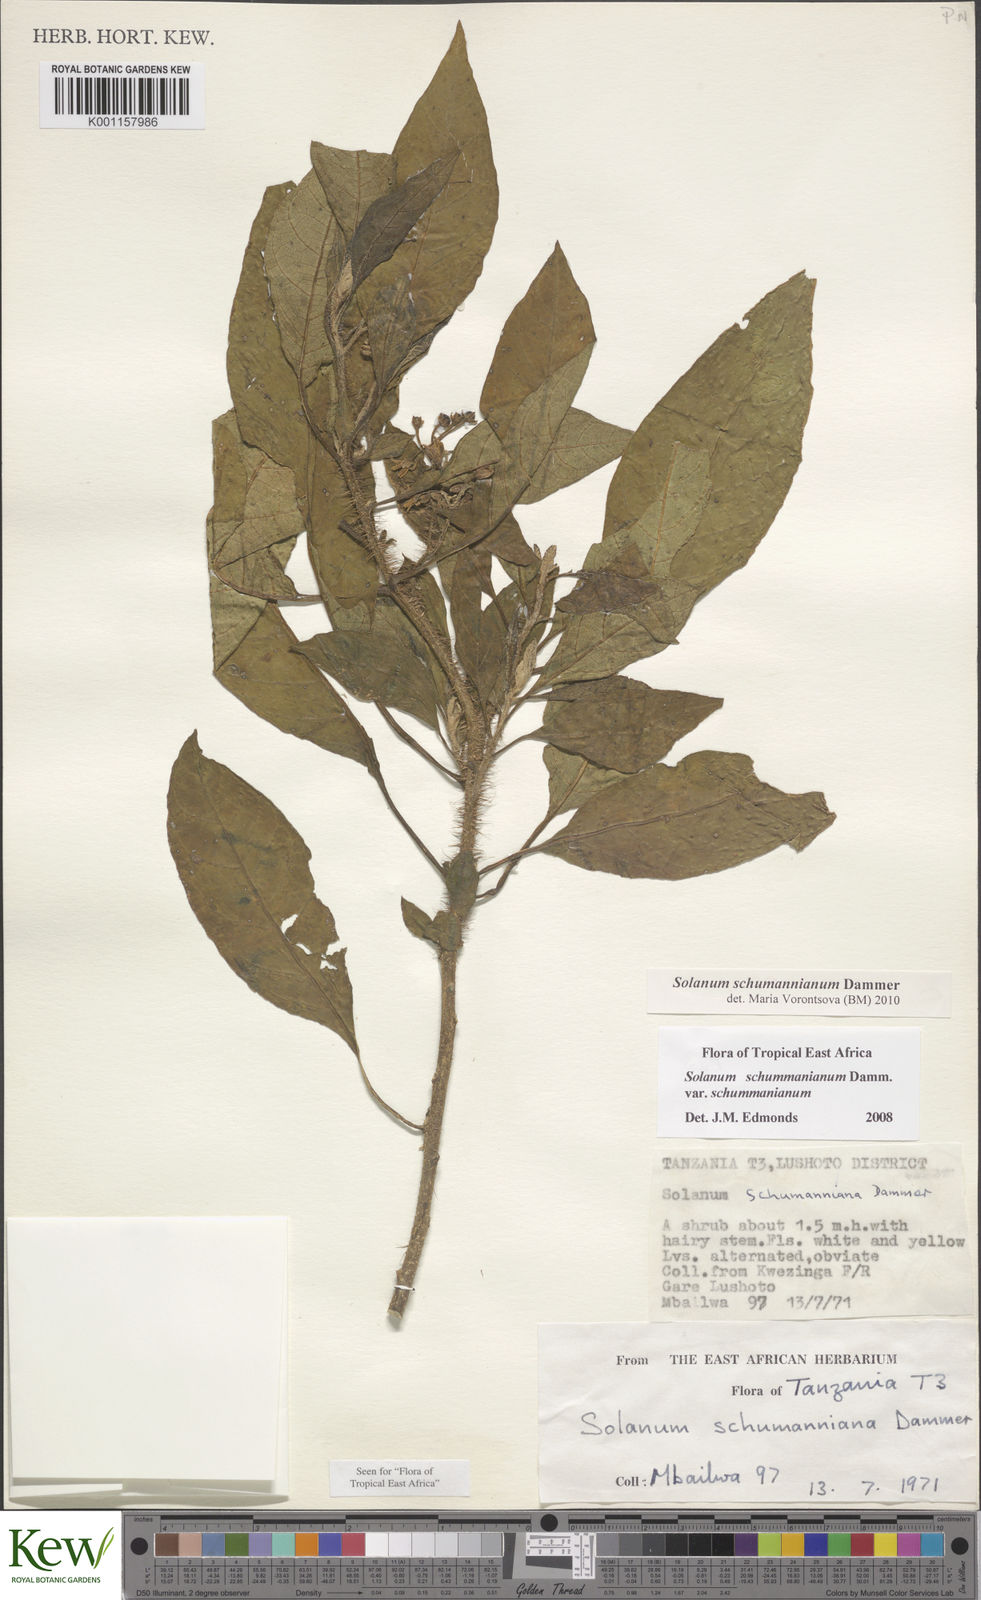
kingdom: Plantae
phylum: Tracheophyta
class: Magnoliopsida
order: Solanales
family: Solanaceae
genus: Solanum
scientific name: Solanum schumannianum
